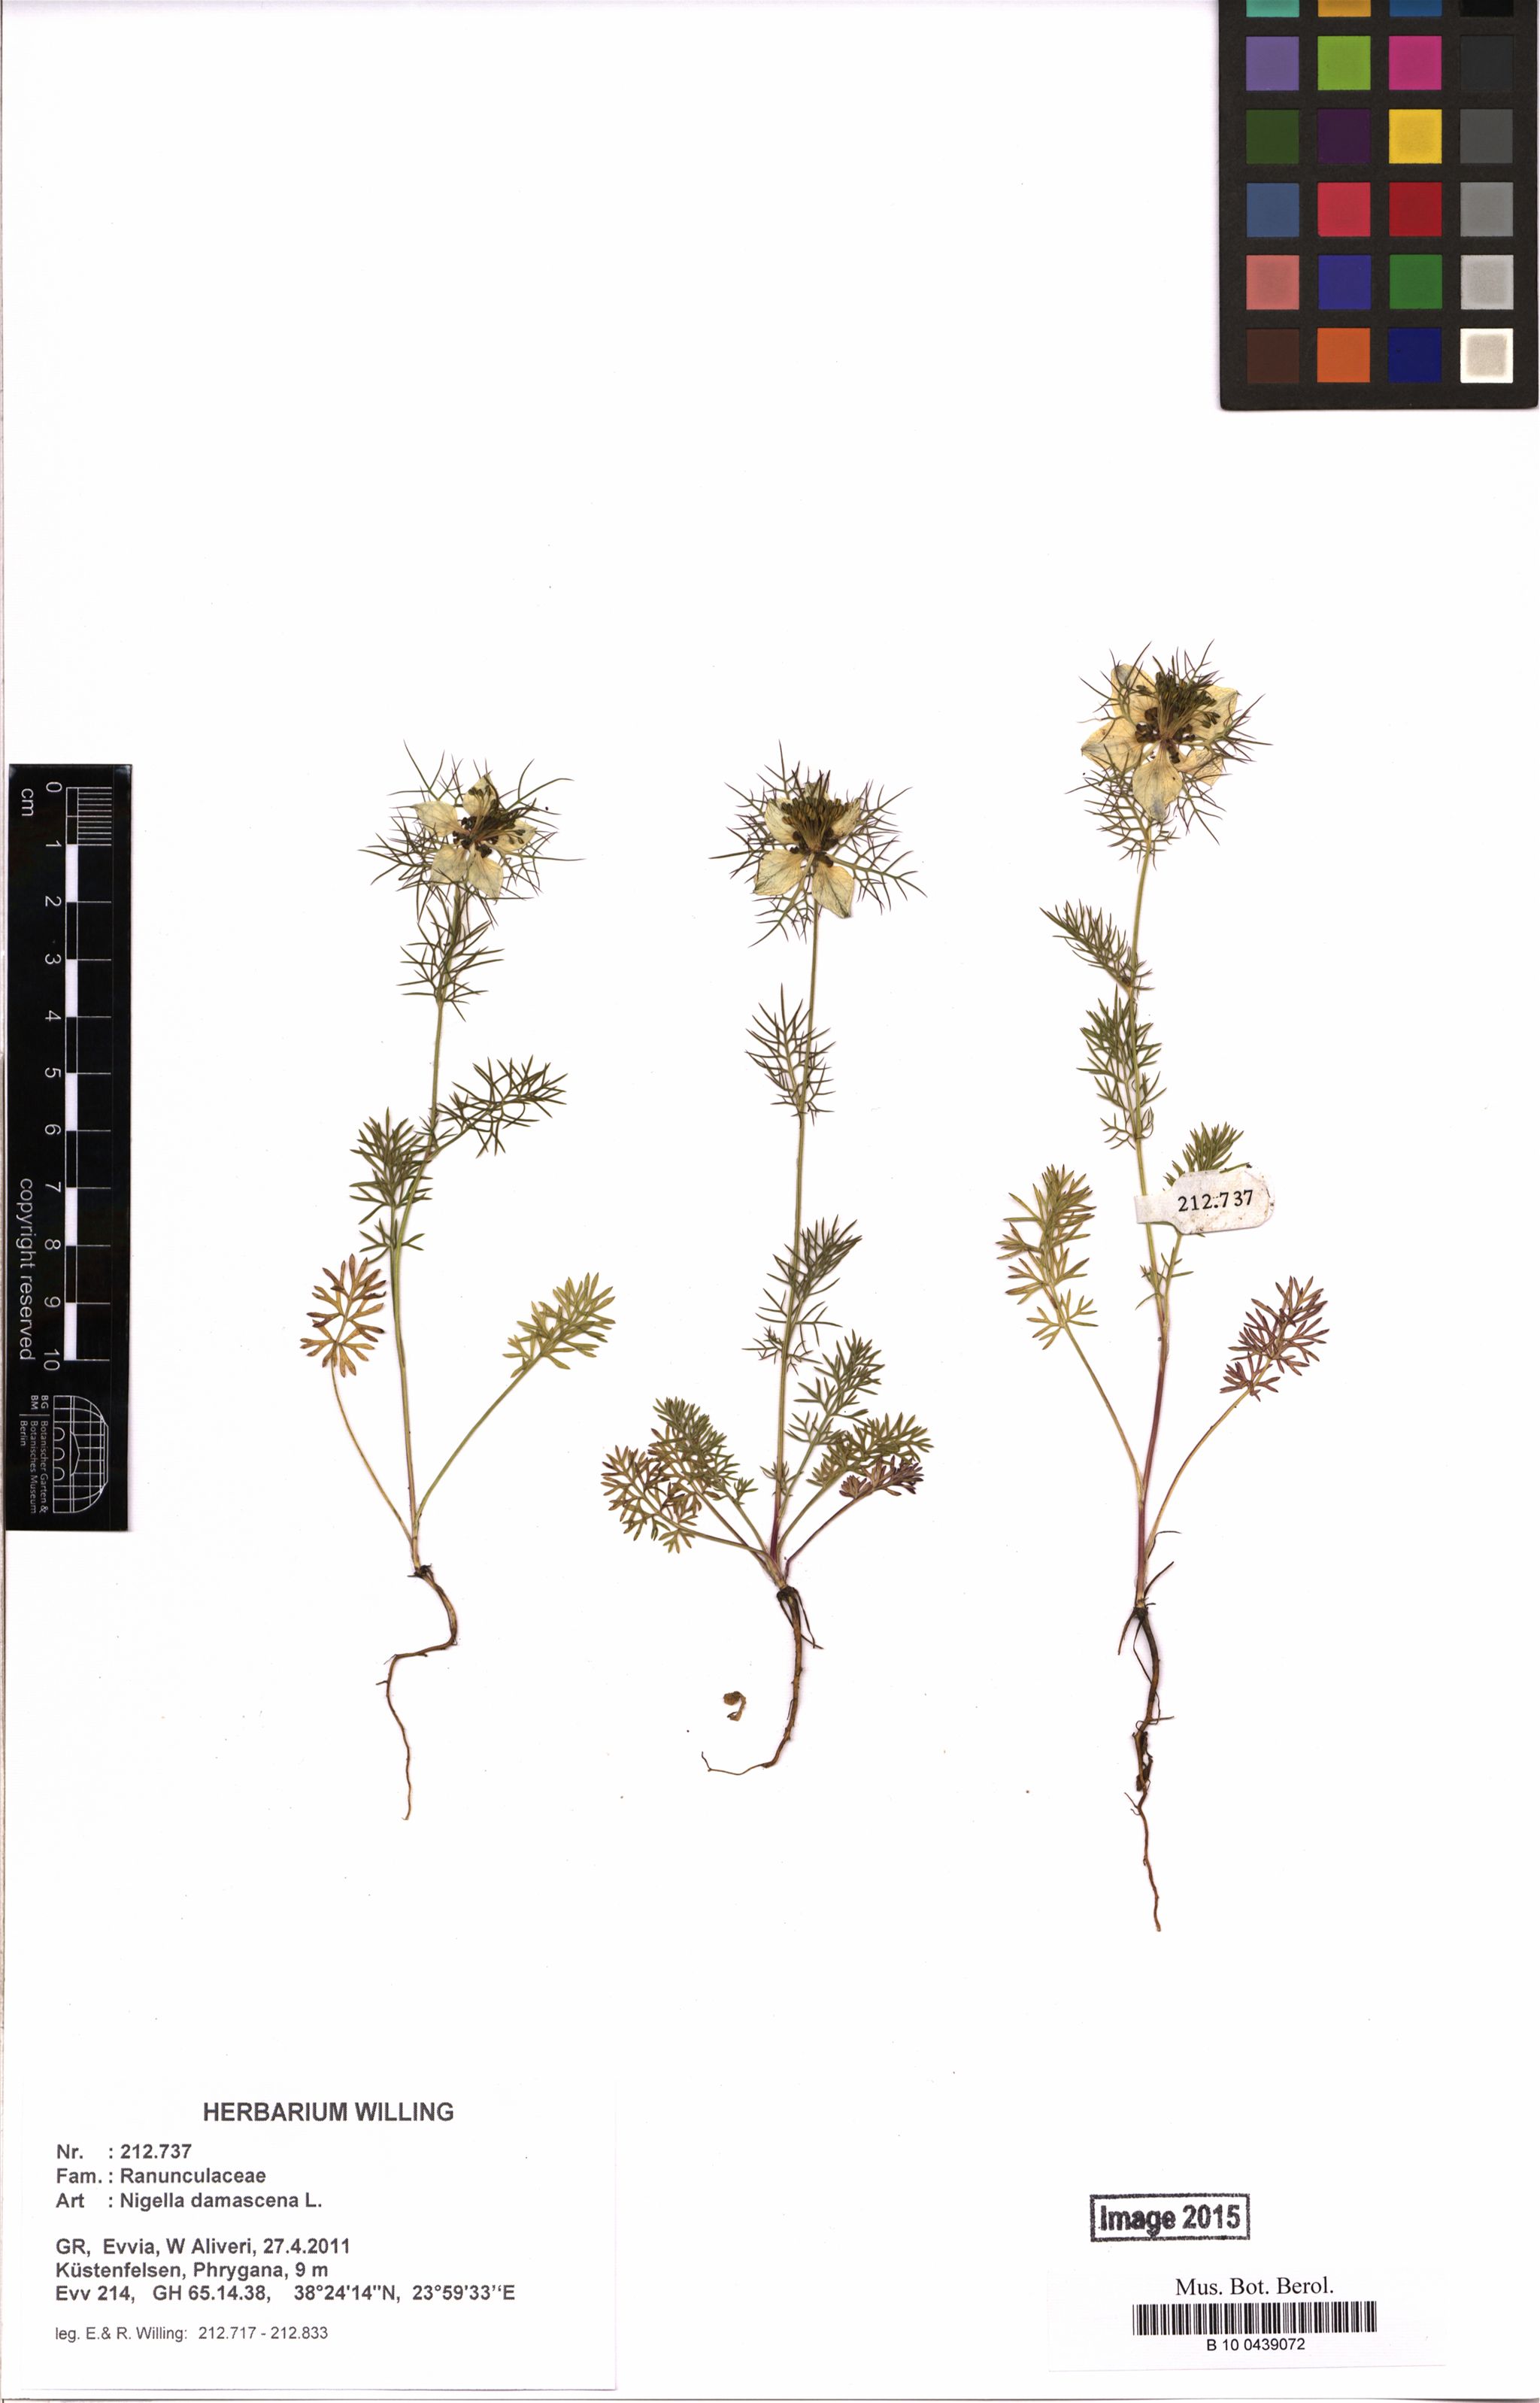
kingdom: Plantae
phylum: Tracheophyta
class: Magnoliopsida
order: Ranunculales
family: Ranunculaceae
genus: Nigella
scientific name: Nigella damascena
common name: Love-in-a-mist
